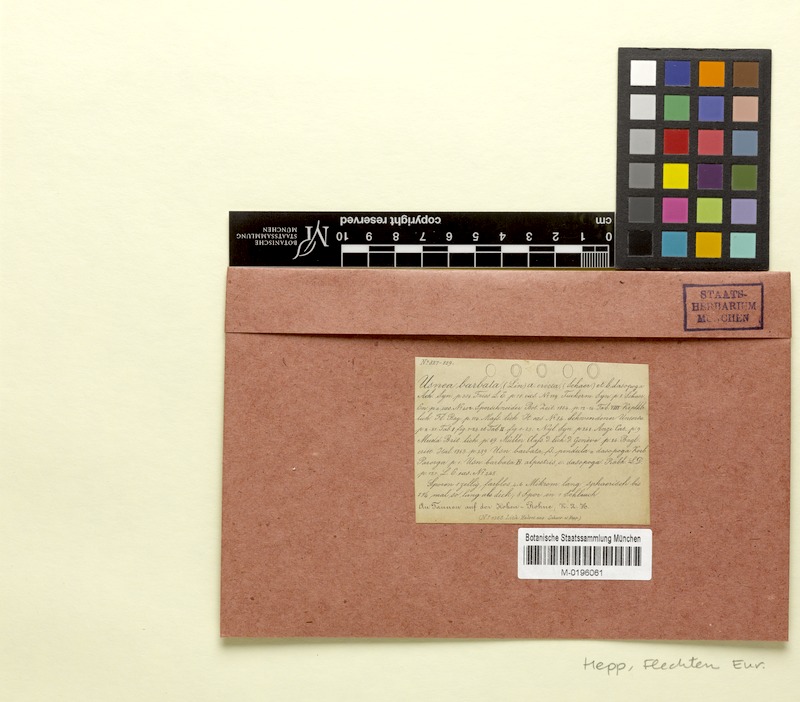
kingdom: Fungi
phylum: Ascomycota
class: Lecanoromycetes
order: Lecanorales
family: Parmeliaceae
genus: Usnea
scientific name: Usnea dasopoga
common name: Fishbone beard lichen
